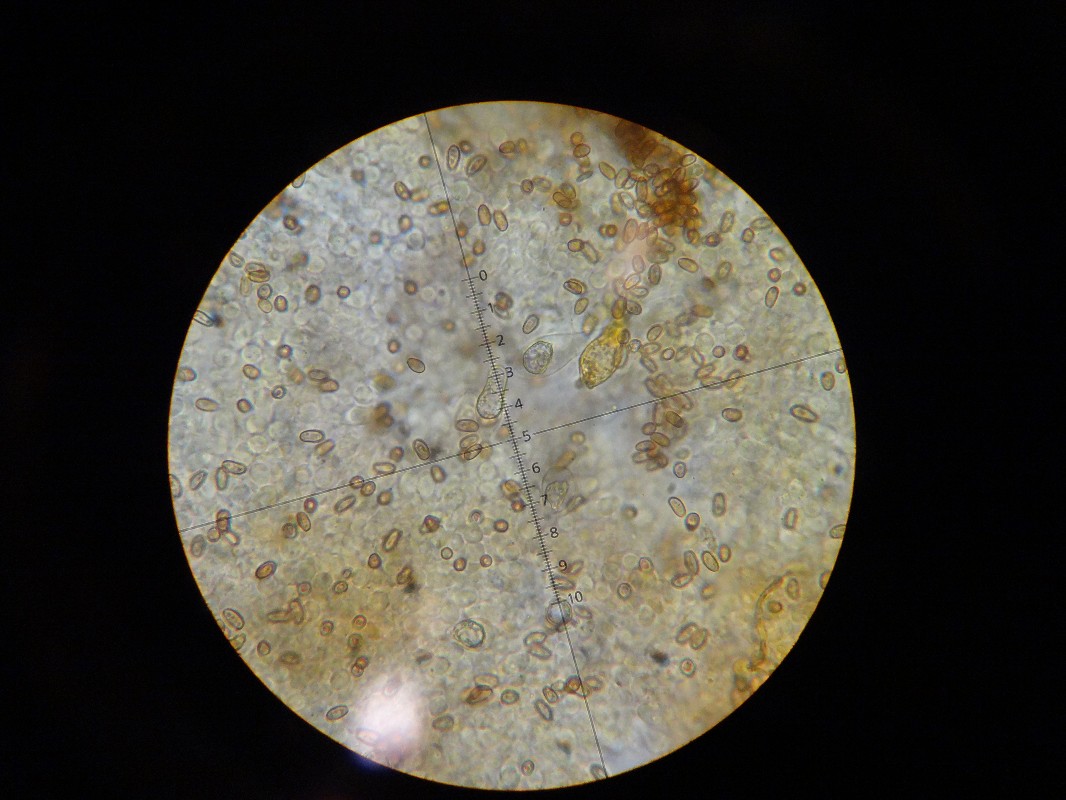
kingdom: Fungi
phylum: Basidiomycota
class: Agaricomycetes
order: Agaricales
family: Strophariaceae
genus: Pholiota
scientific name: Pholiota conissans
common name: pile-skælhat
